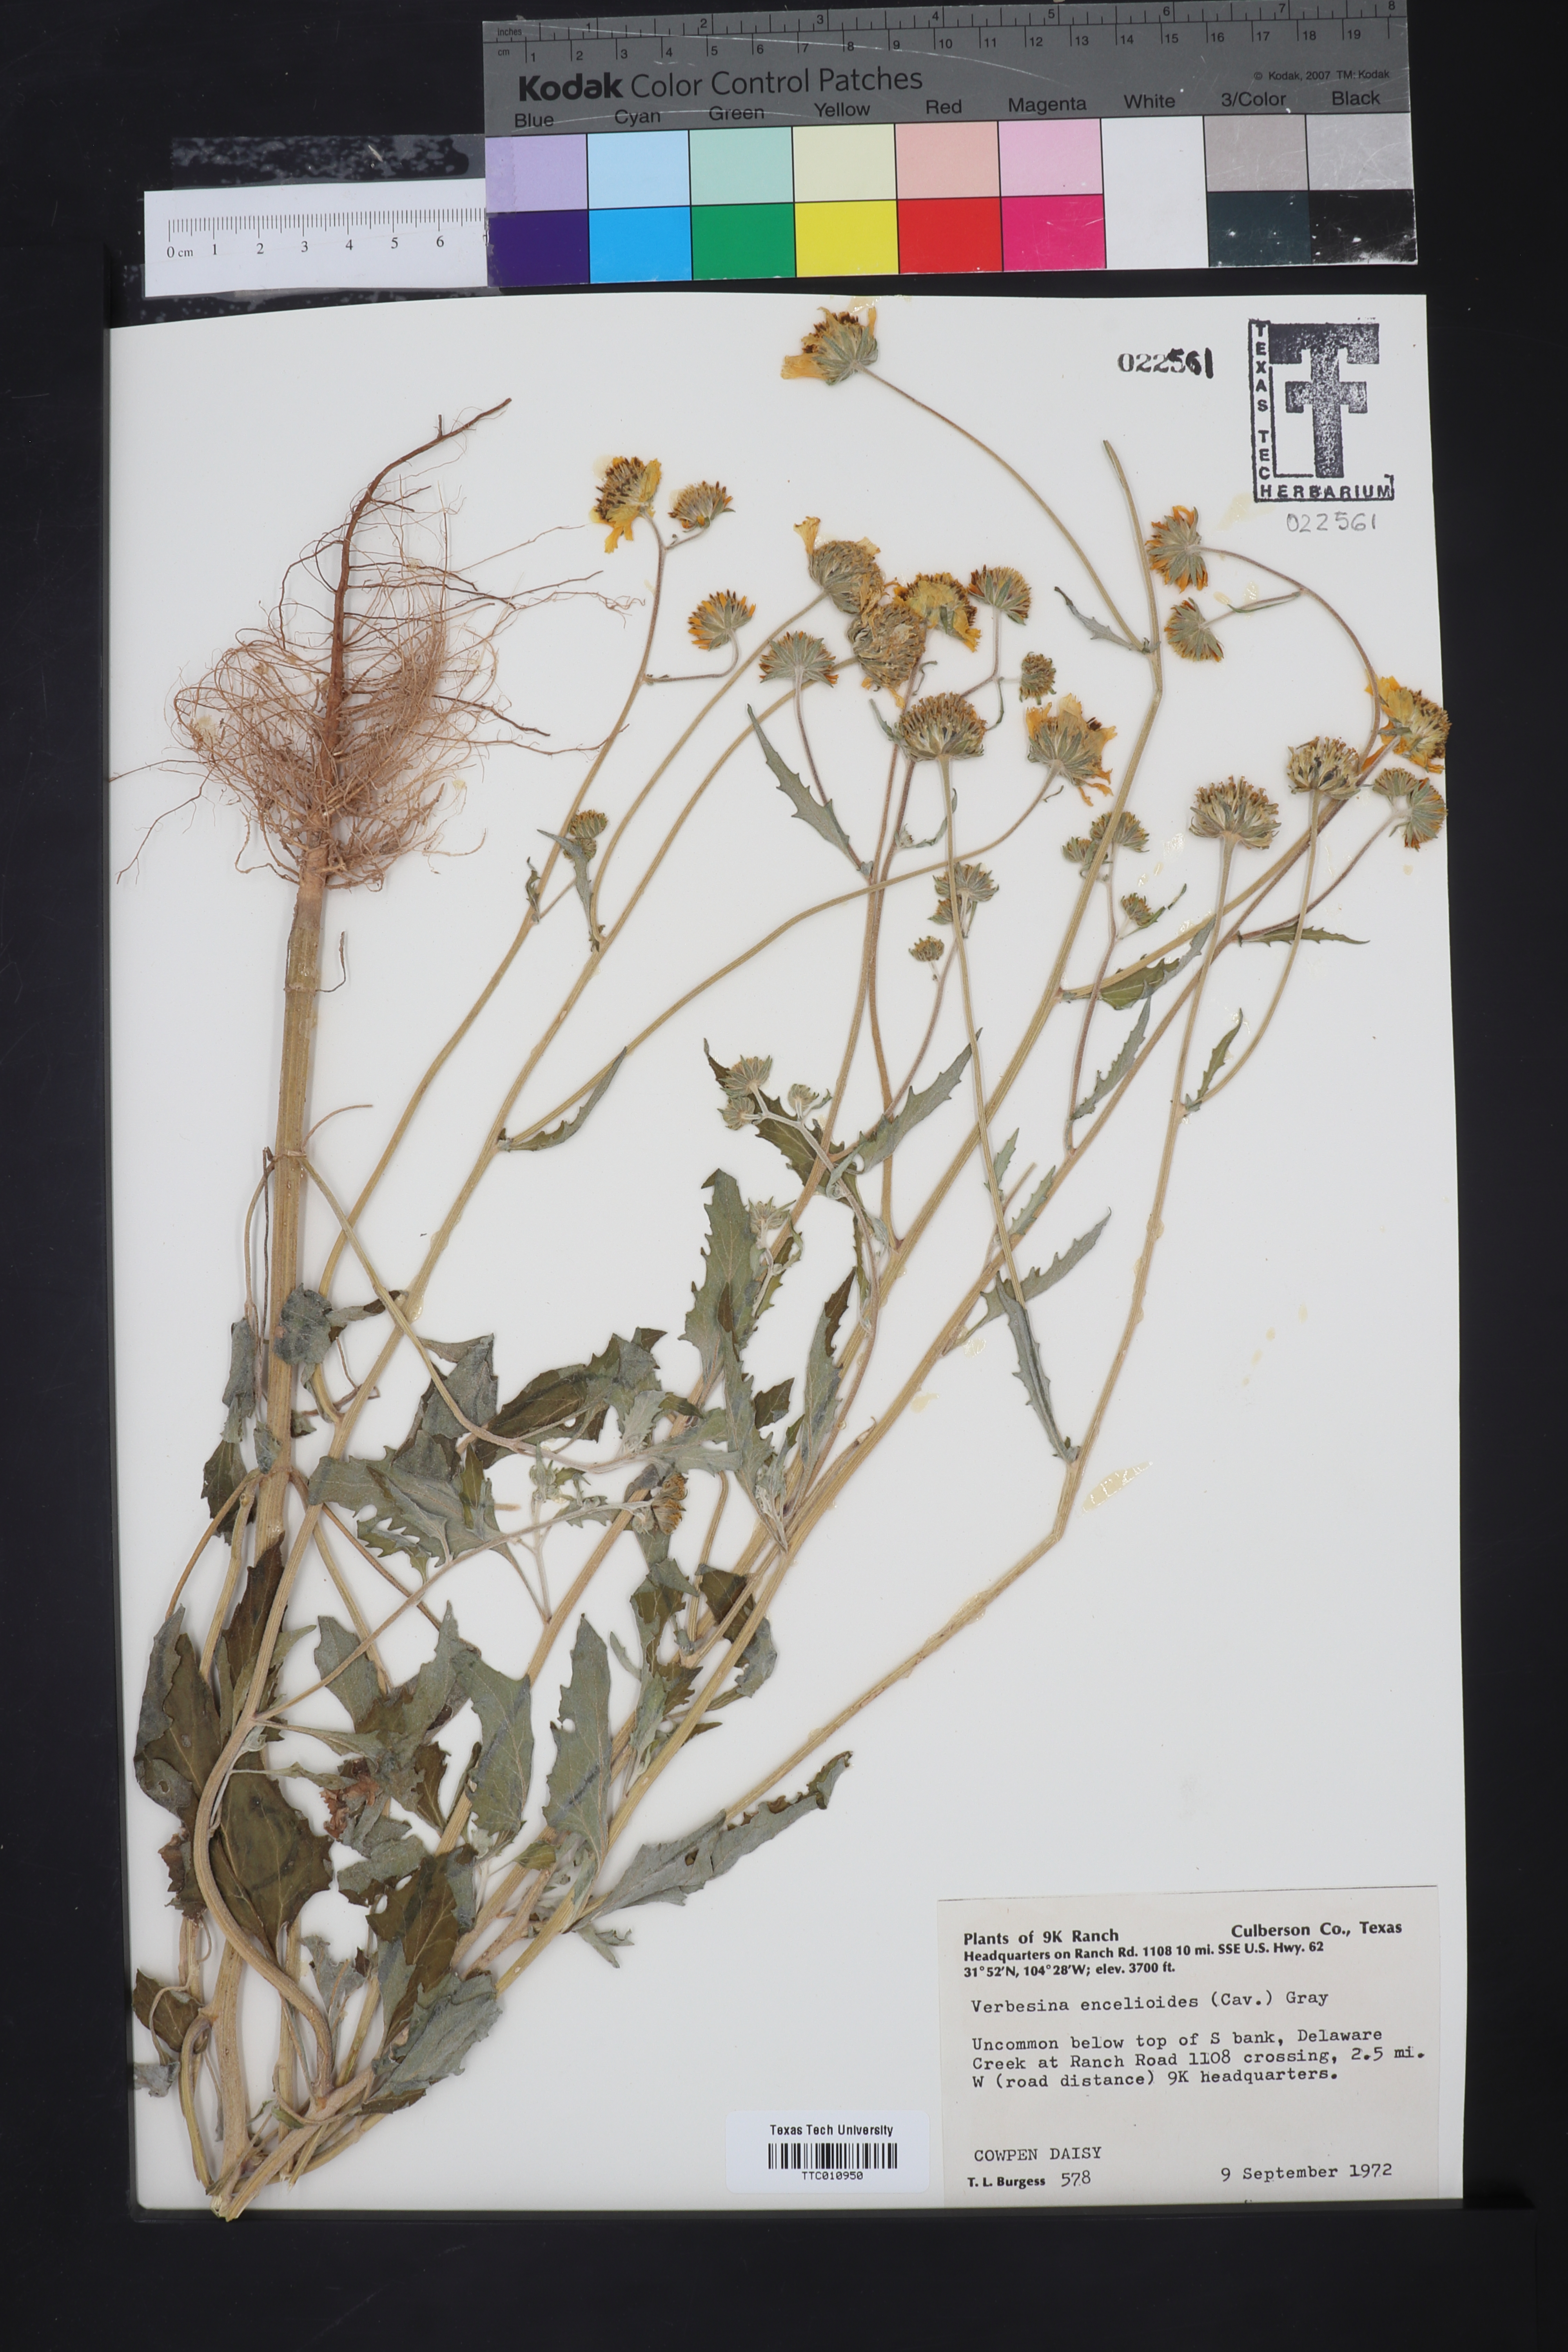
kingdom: Plantae
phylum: Tracheophyta
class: Magnoliopsida
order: Asterales
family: Asteraceae
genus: Verbesina
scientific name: Verbesina encelioides
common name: Golden crownbeard
